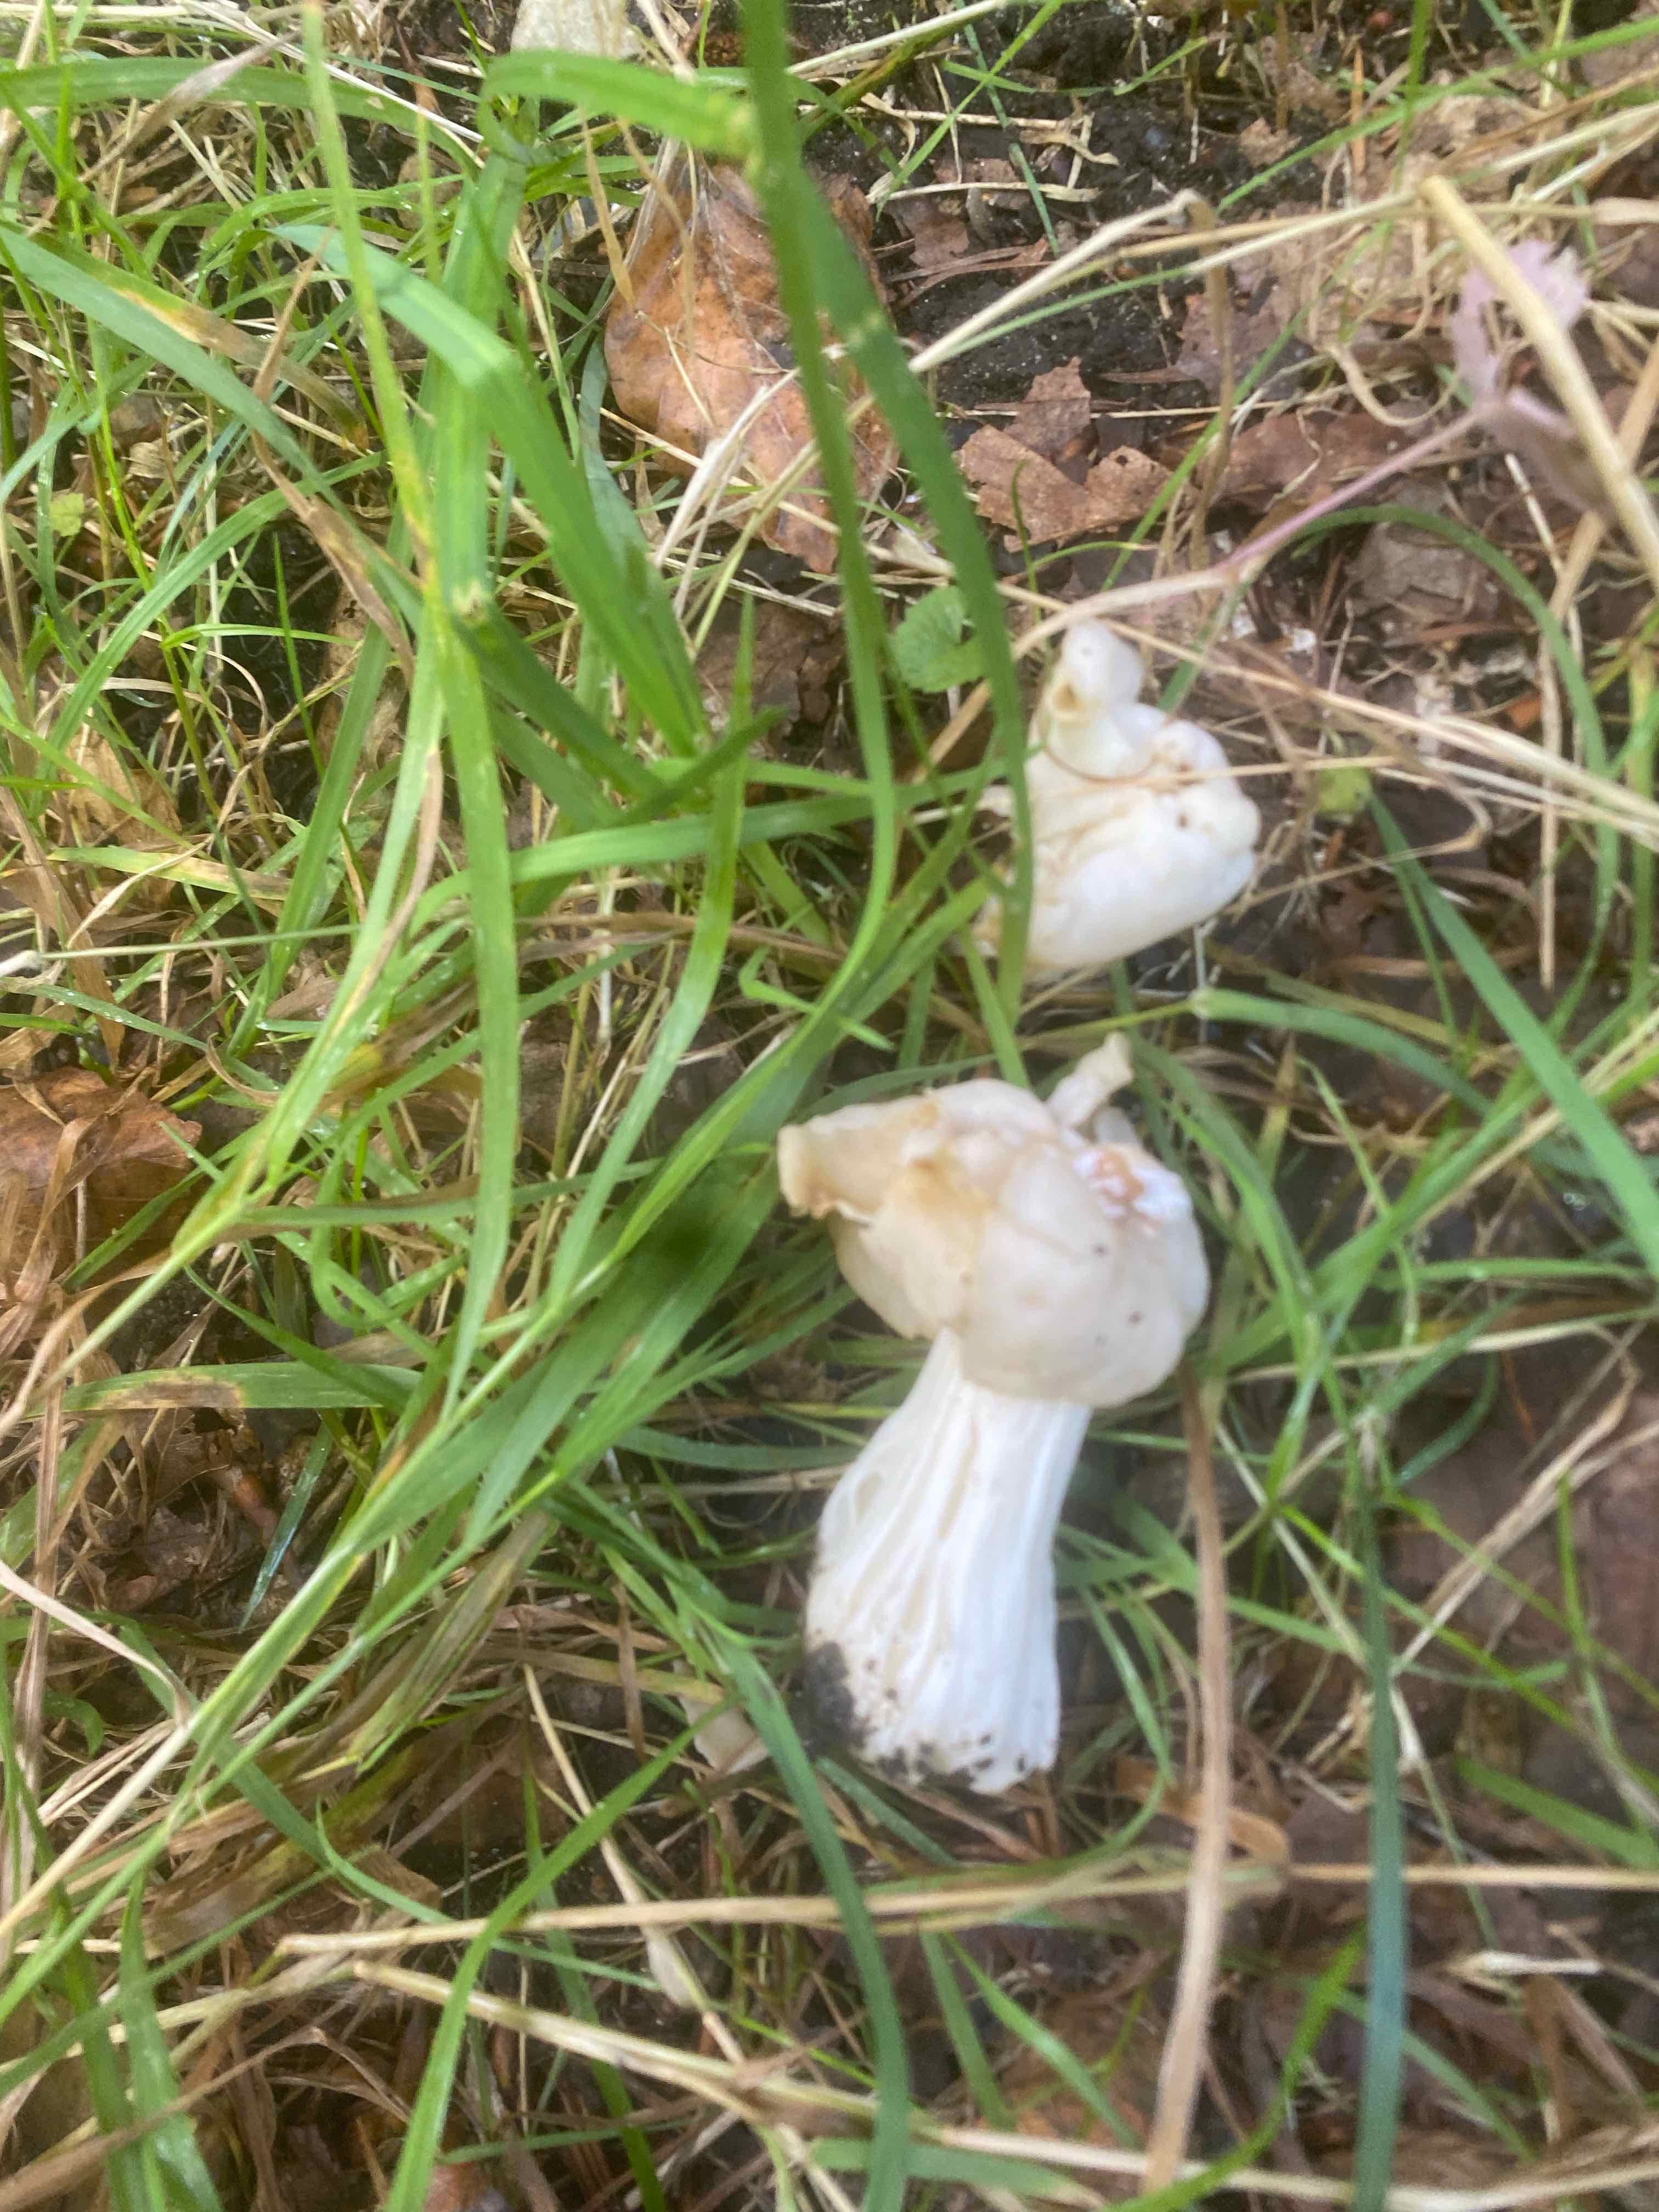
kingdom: Fungi
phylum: Ascomycota
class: Pezizomycetes
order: Pezizales
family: Helvellaceae
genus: Helvella
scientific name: Helvella crispa
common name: kruset foldhat
